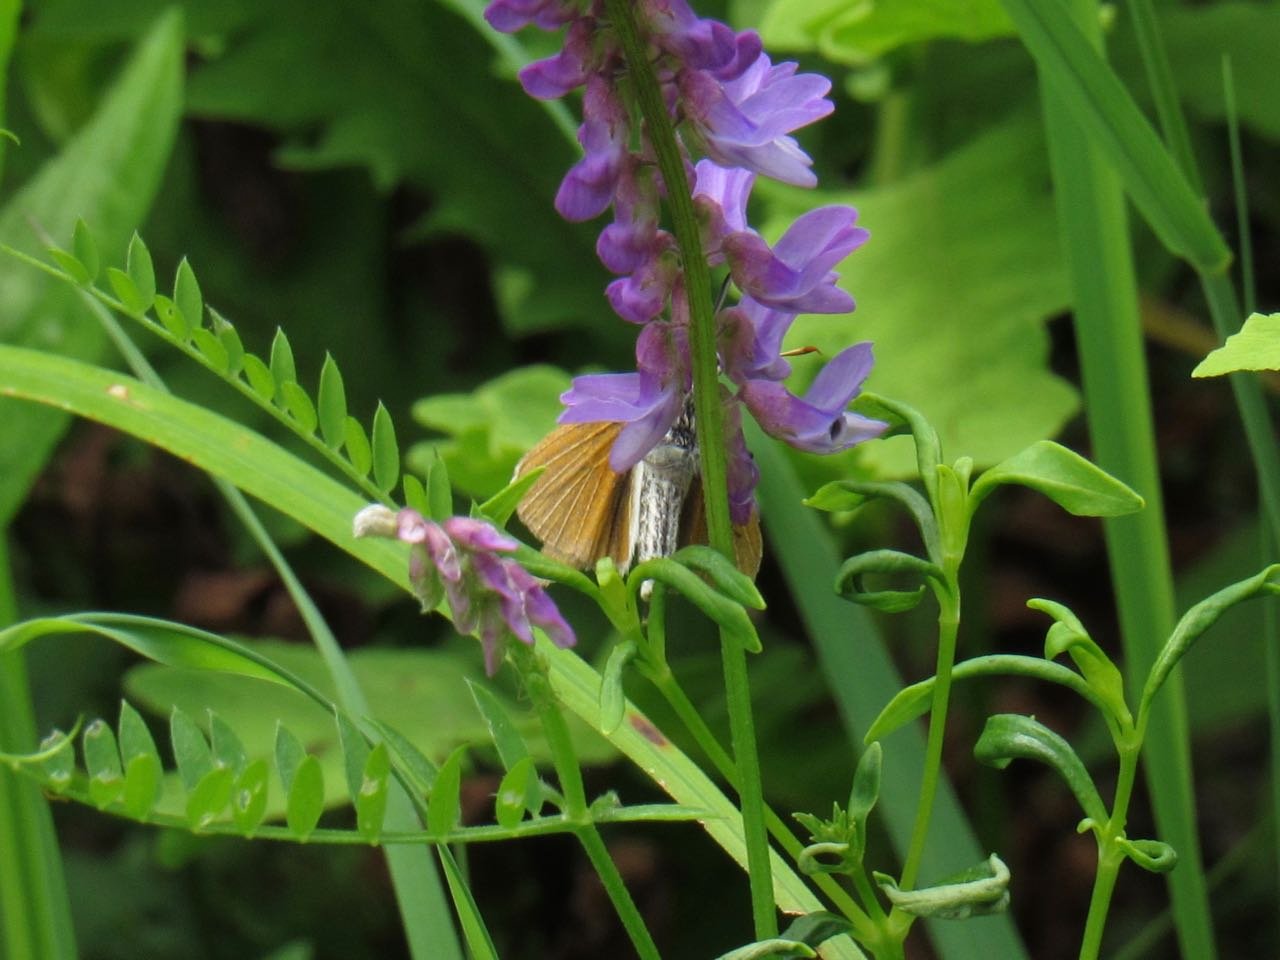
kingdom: Animalia
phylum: Arthropoda
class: Insecta
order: Lepidoptera
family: Hesperiidae
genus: Euphyes
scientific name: Euphyes bimacula
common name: Two-spotted Skipper
